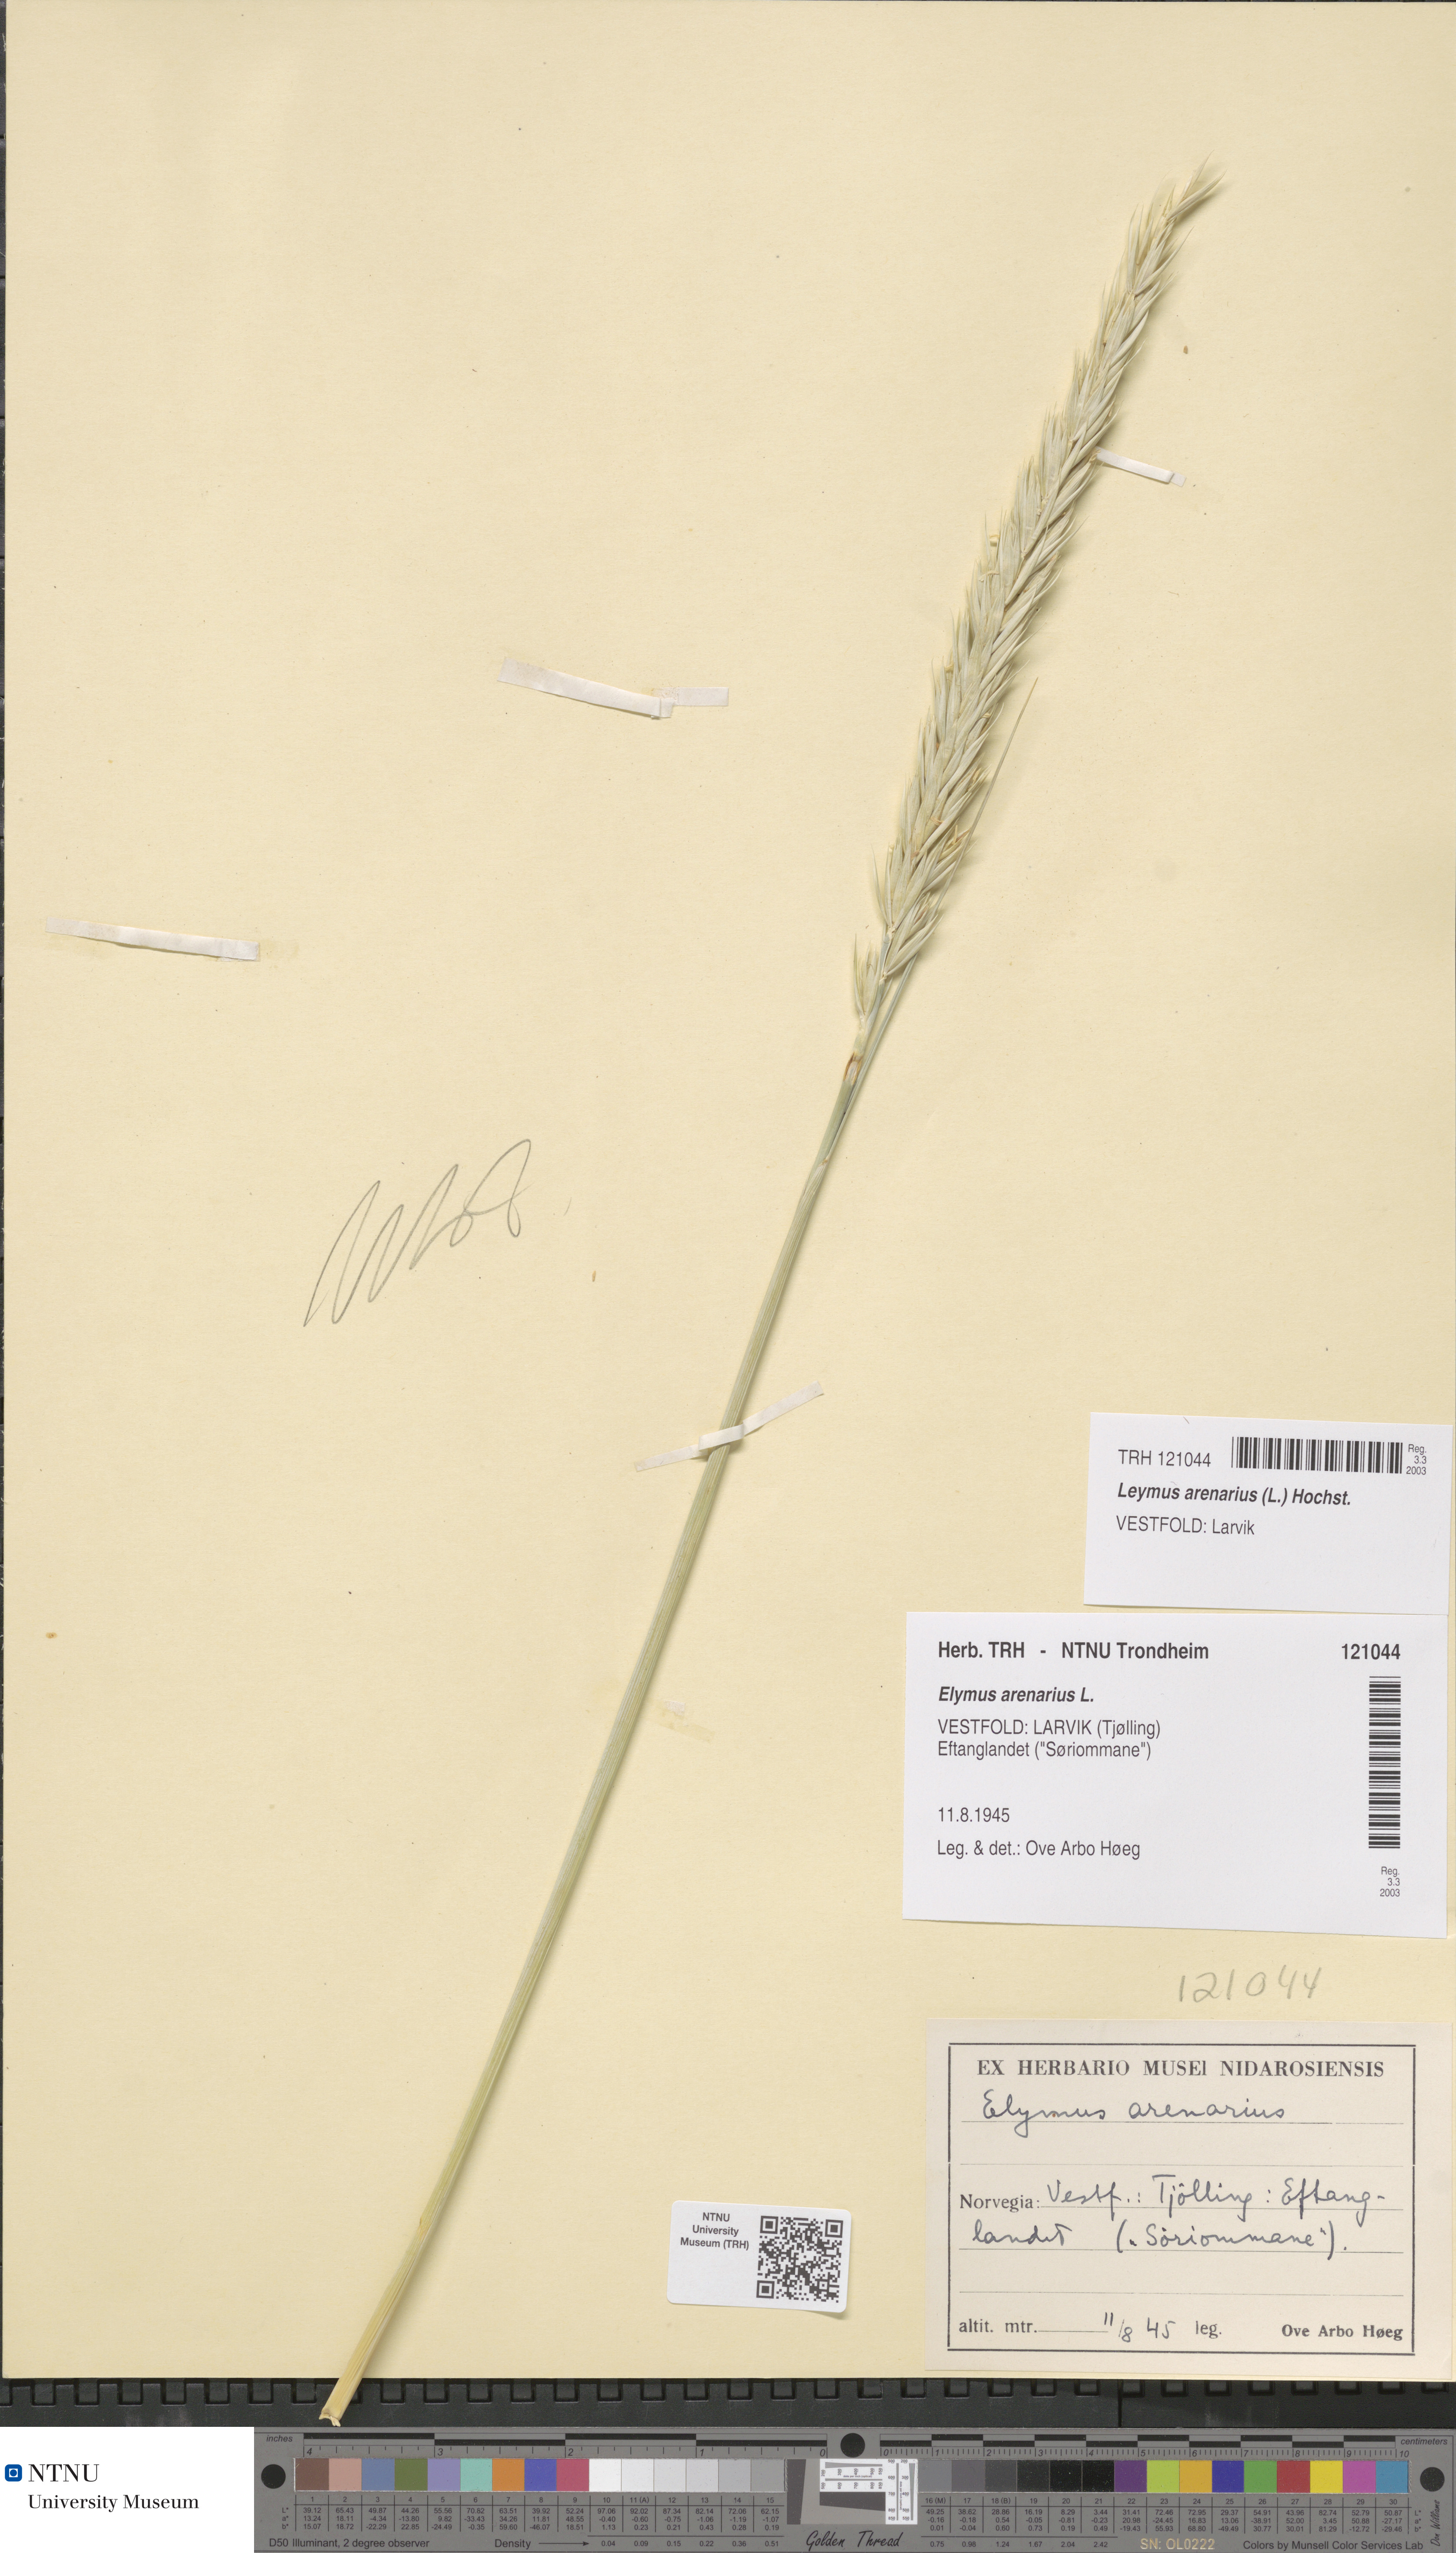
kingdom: Plantae
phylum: Tracheophyta
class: Liliopsida
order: Poales
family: Poaceae
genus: Leymus
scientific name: Leymus arenarius
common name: Lyme-grass
